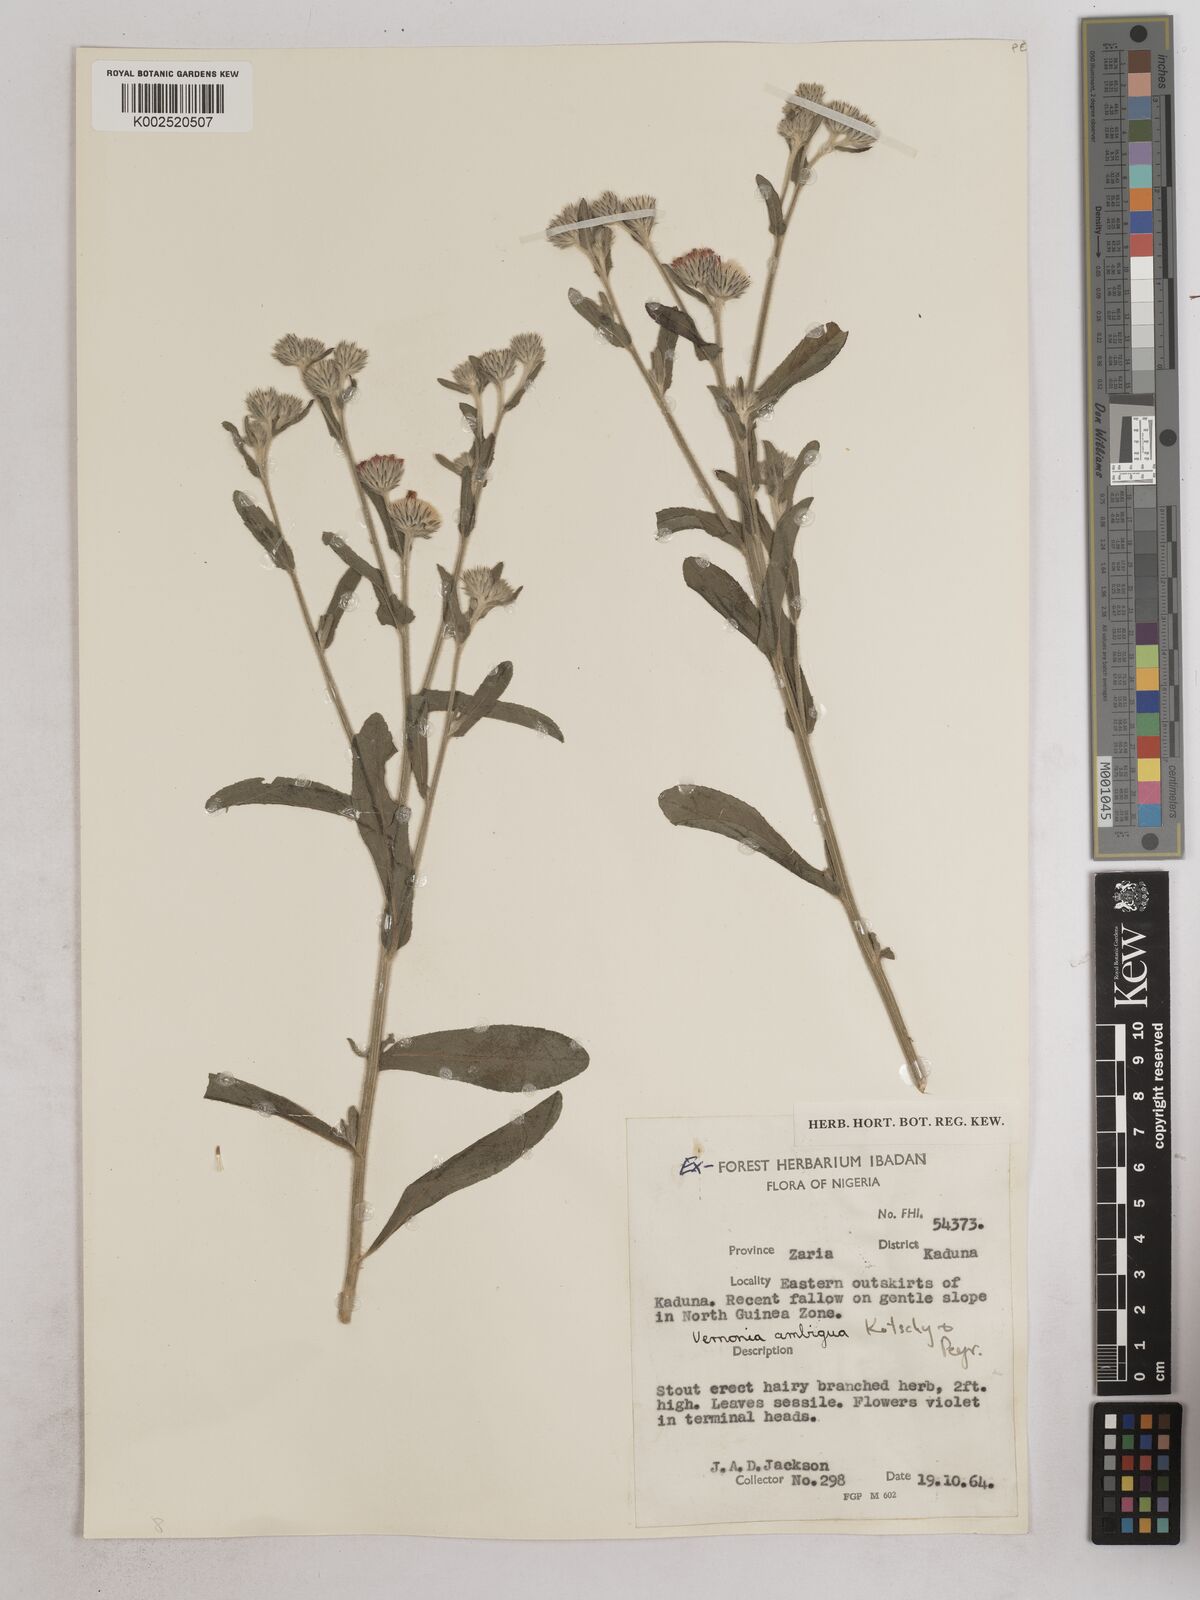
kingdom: Plantae
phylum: Tracheophyta
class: Magnoliopsida
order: Asterales
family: Asteraceae
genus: Vernoniastrum
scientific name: Vernoniastrum ambiguum
